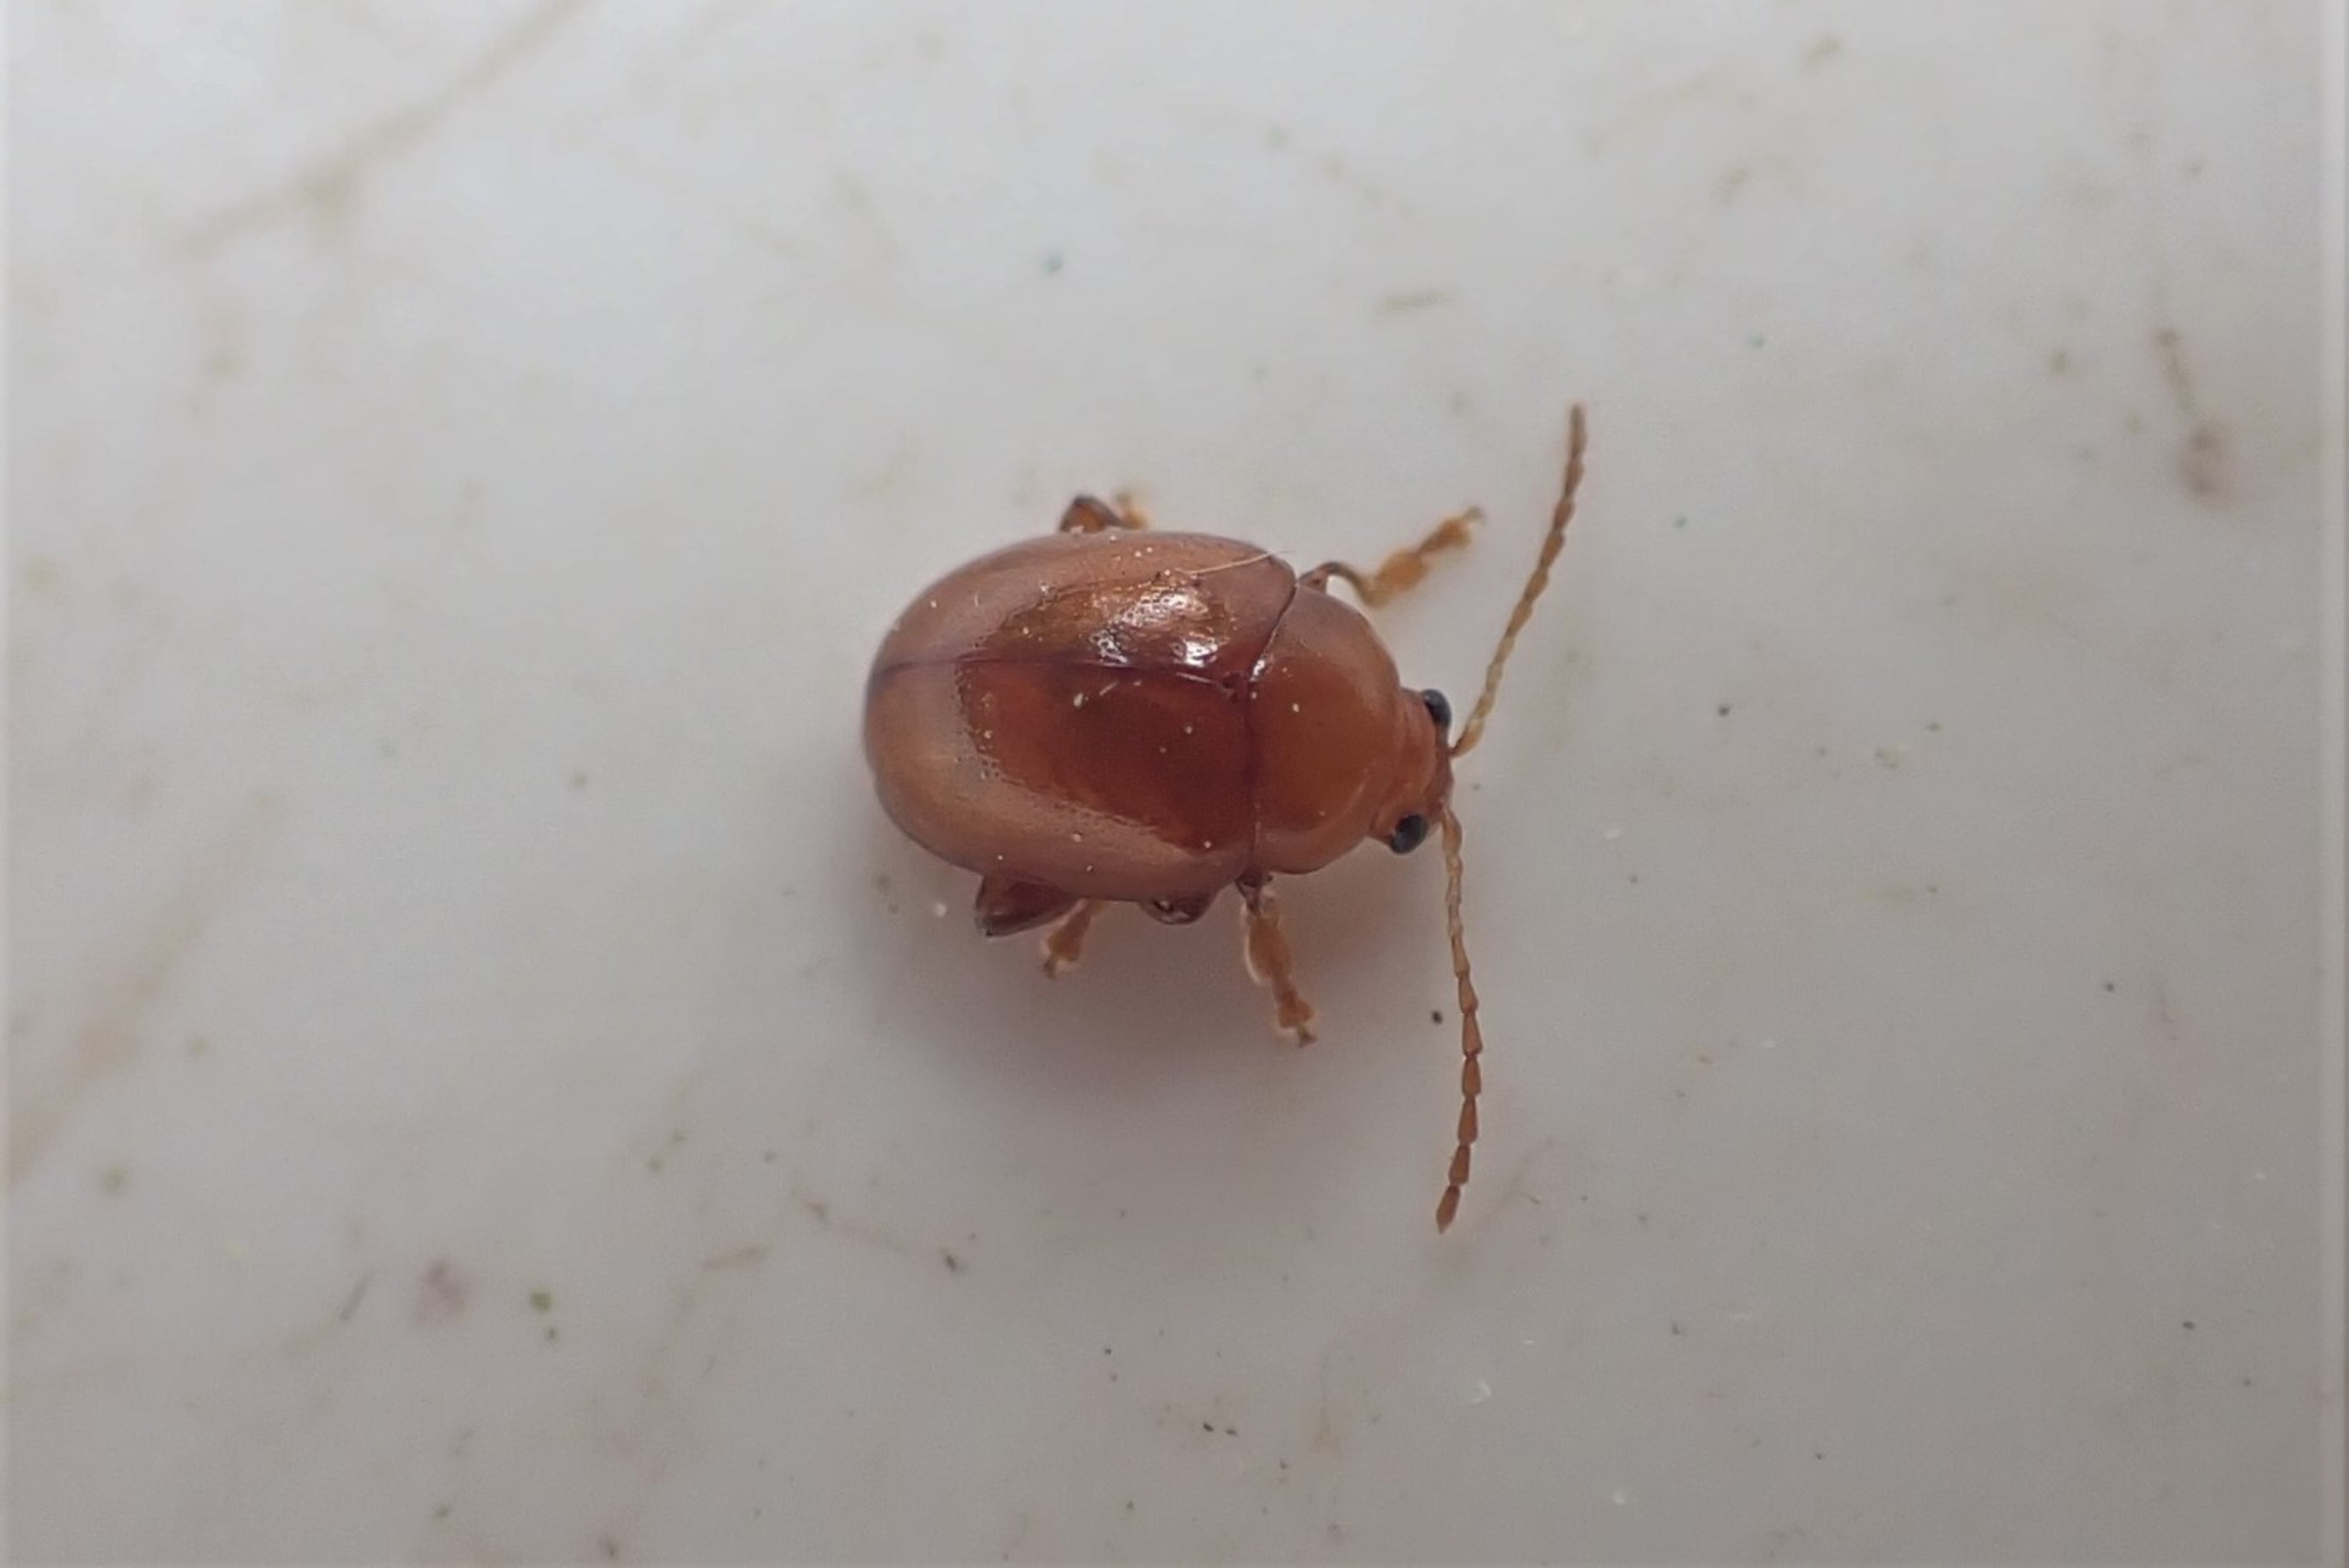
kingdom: Animalia
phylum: Arthropoda
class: Insecta
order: Coleoptera
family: Chrysomelidae
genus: Pistosia
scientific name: Pistosia testacea
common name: Tidselkuglebille
